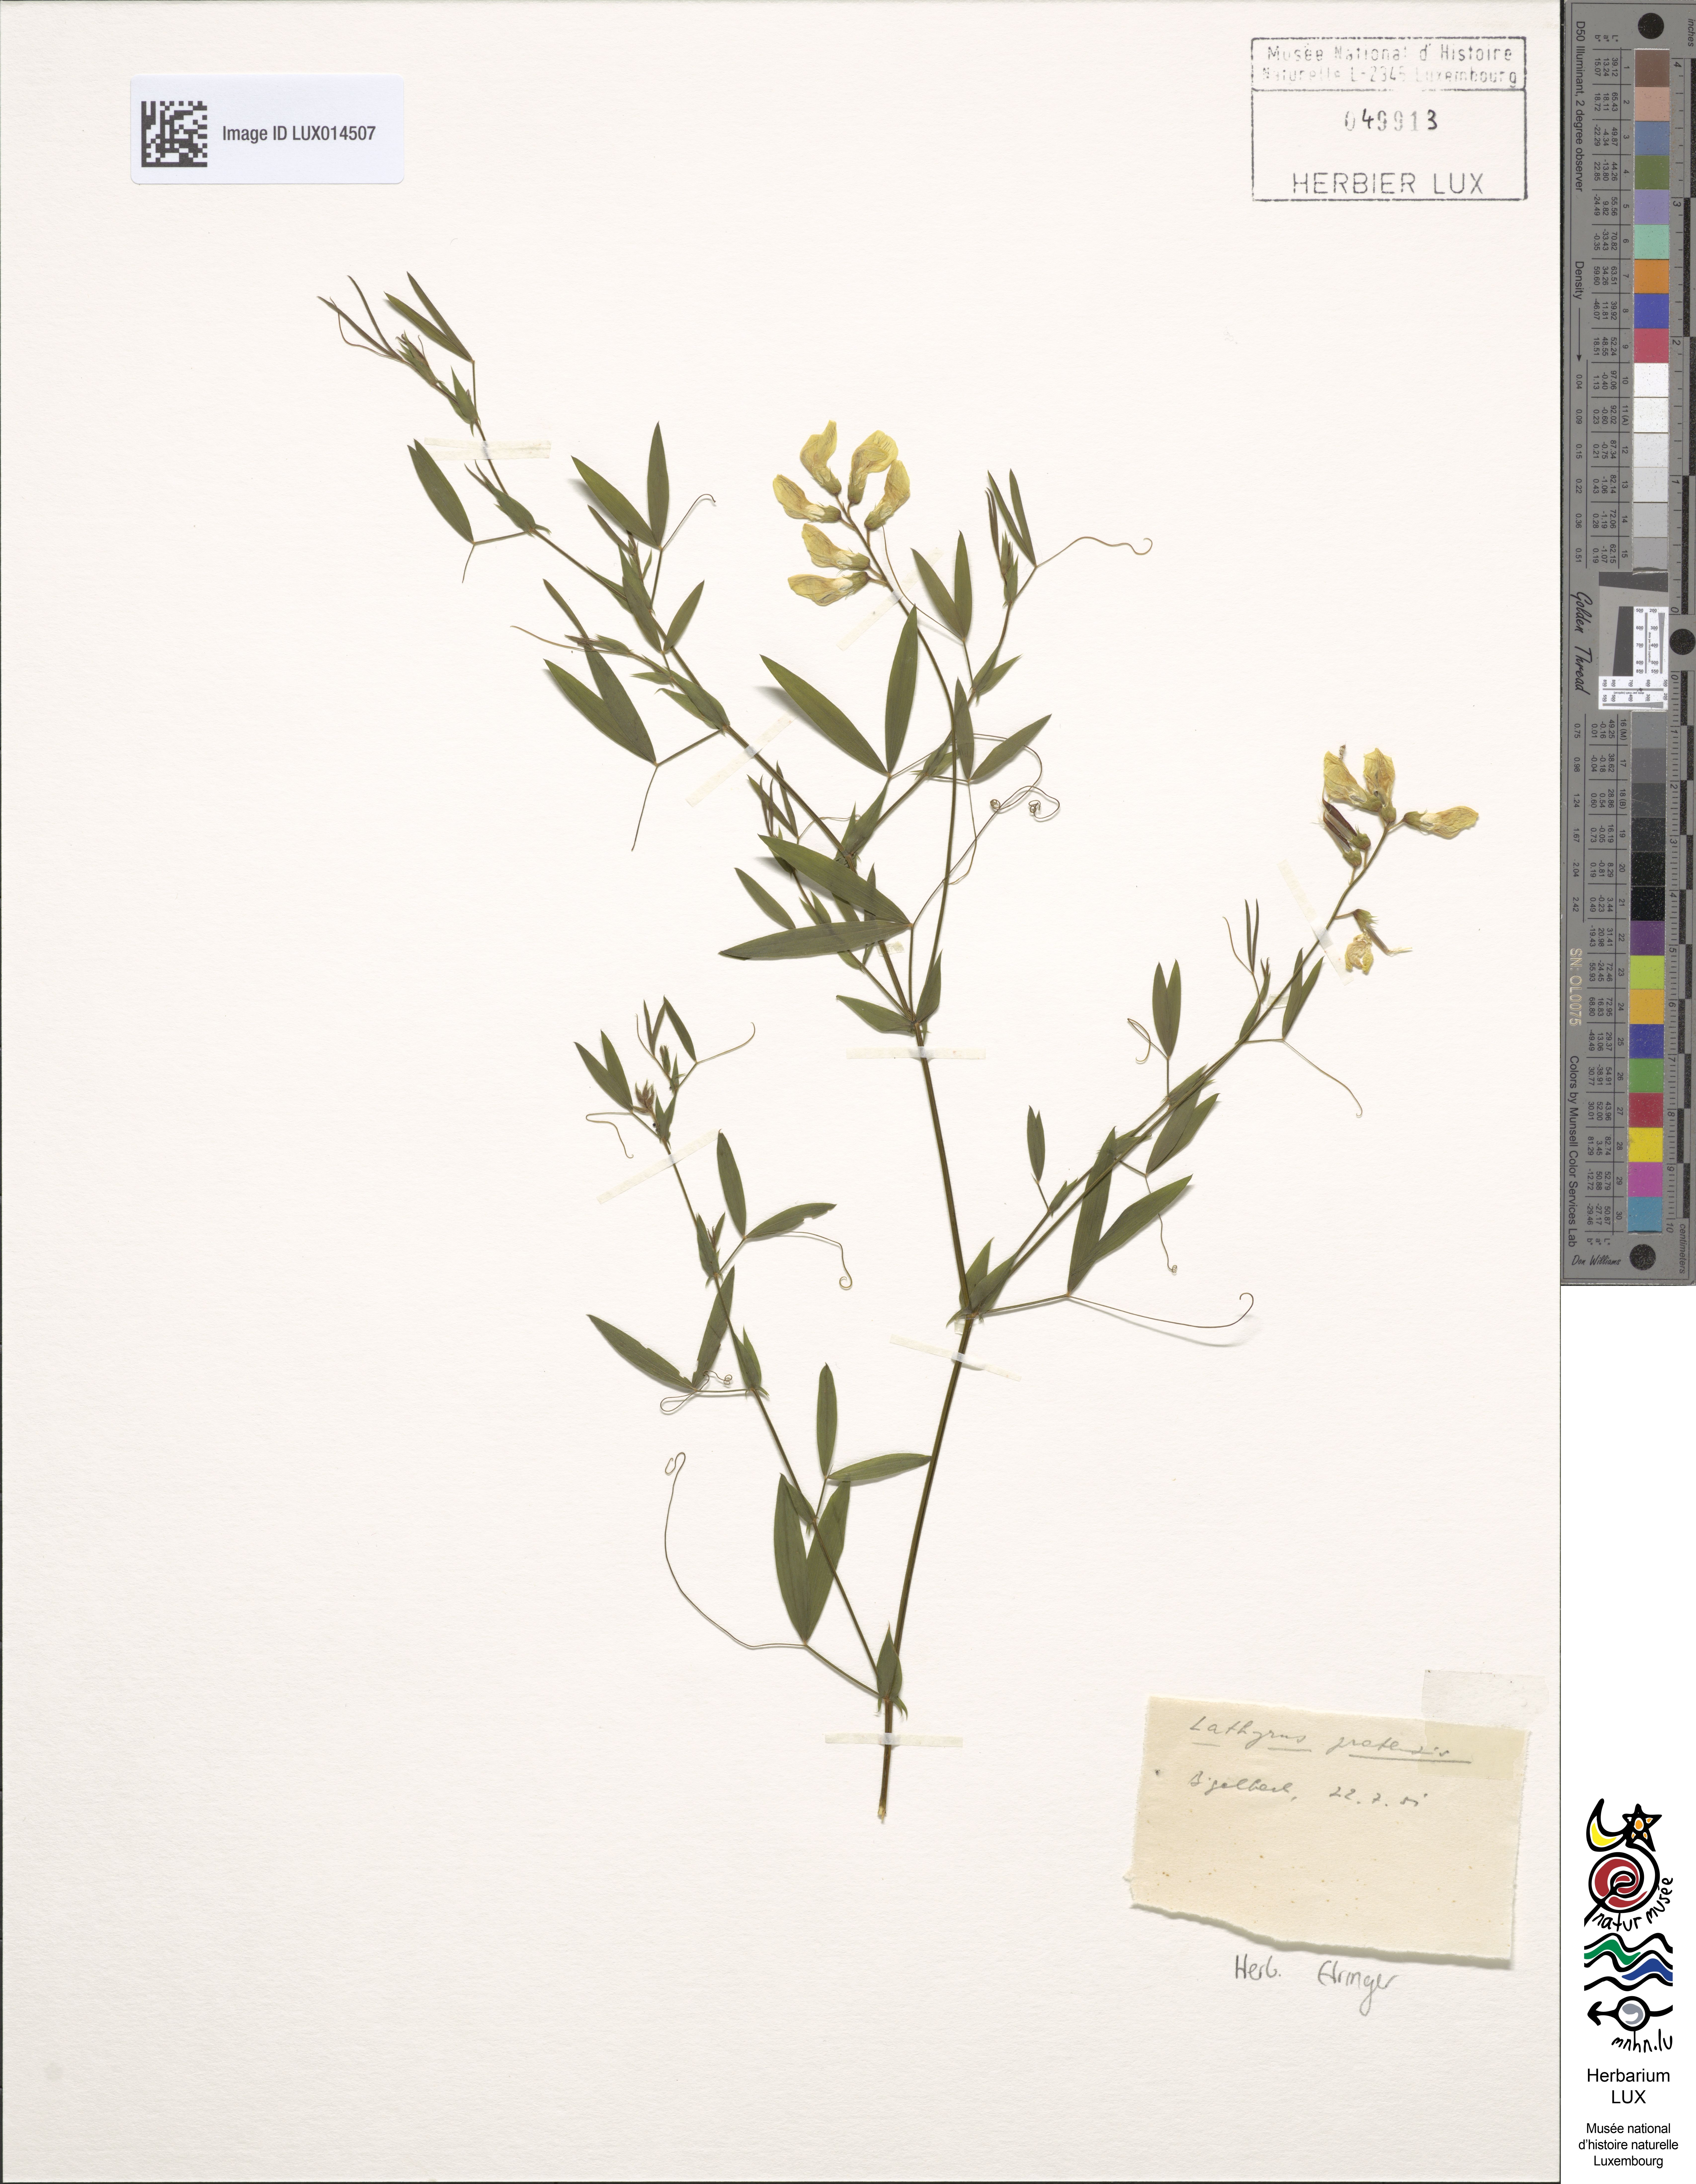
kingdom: Plantae
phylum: Tracheophyta
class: Magnoliopsida
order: Fabales
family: Fabaceae
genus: Lathyrus
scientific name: Lathyrus pratensis
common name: Meadow vetchling
